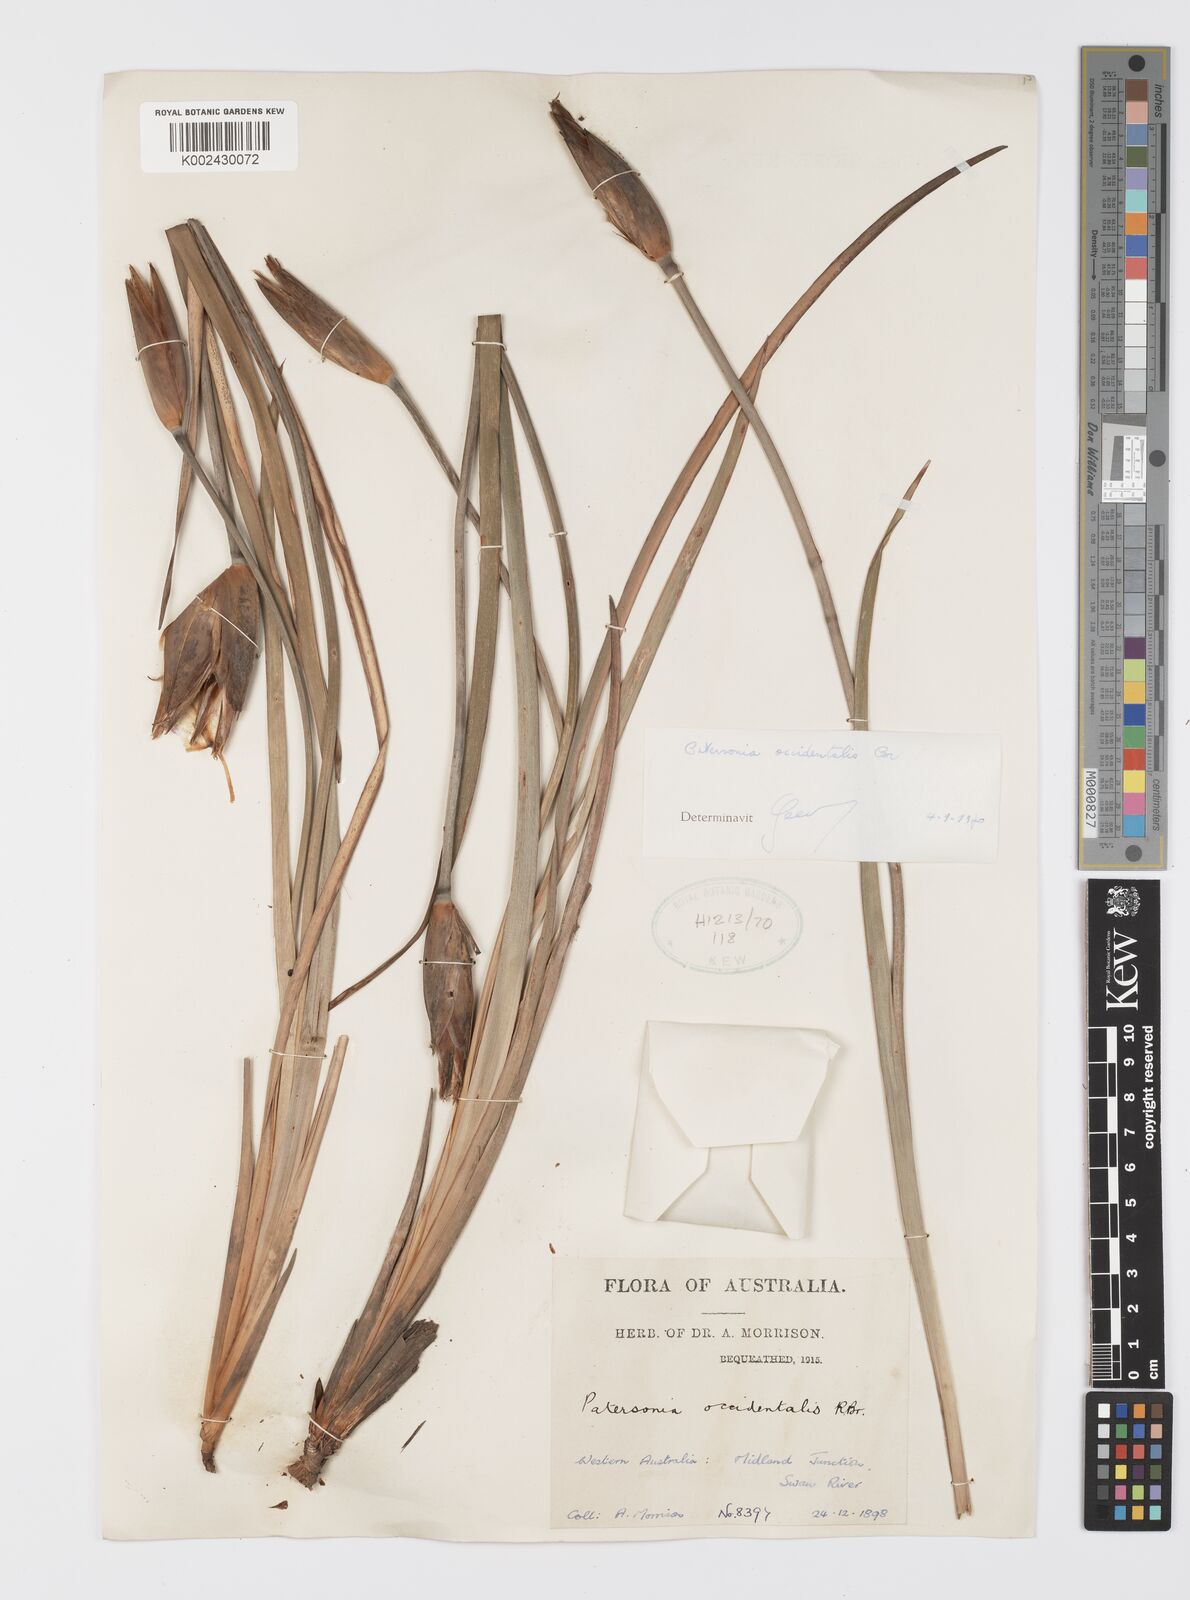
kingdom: Plantae
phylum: Tracheophyta
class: Liliopsida
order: Asparagales
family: Iridaceae
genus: Patersonia
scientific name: Patersonia occidentalis
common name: Long purple-flag
